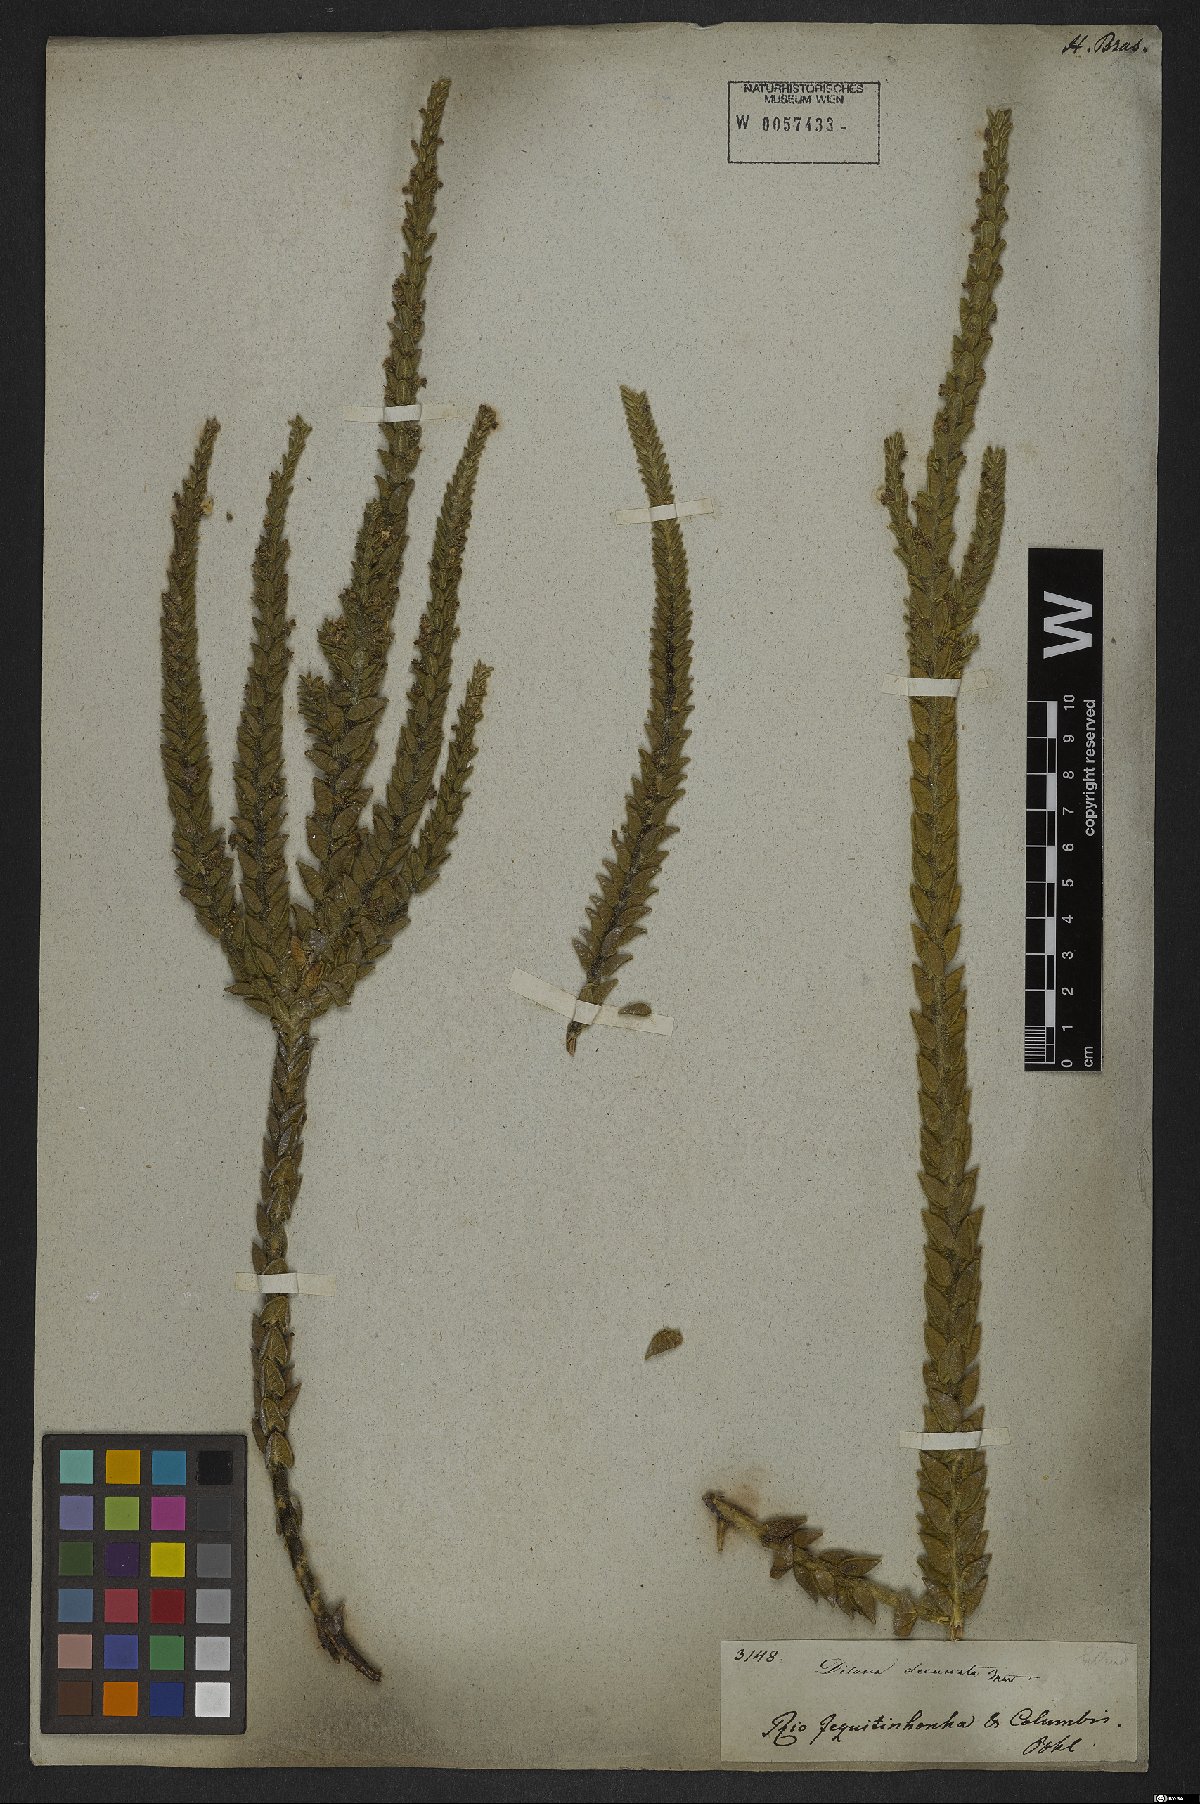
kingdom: Plantae
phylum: Tracheophyta
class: Magnoliopsida
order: Gentianales
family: Apocynaceae
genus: Minaria
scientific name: Minaria decussata
